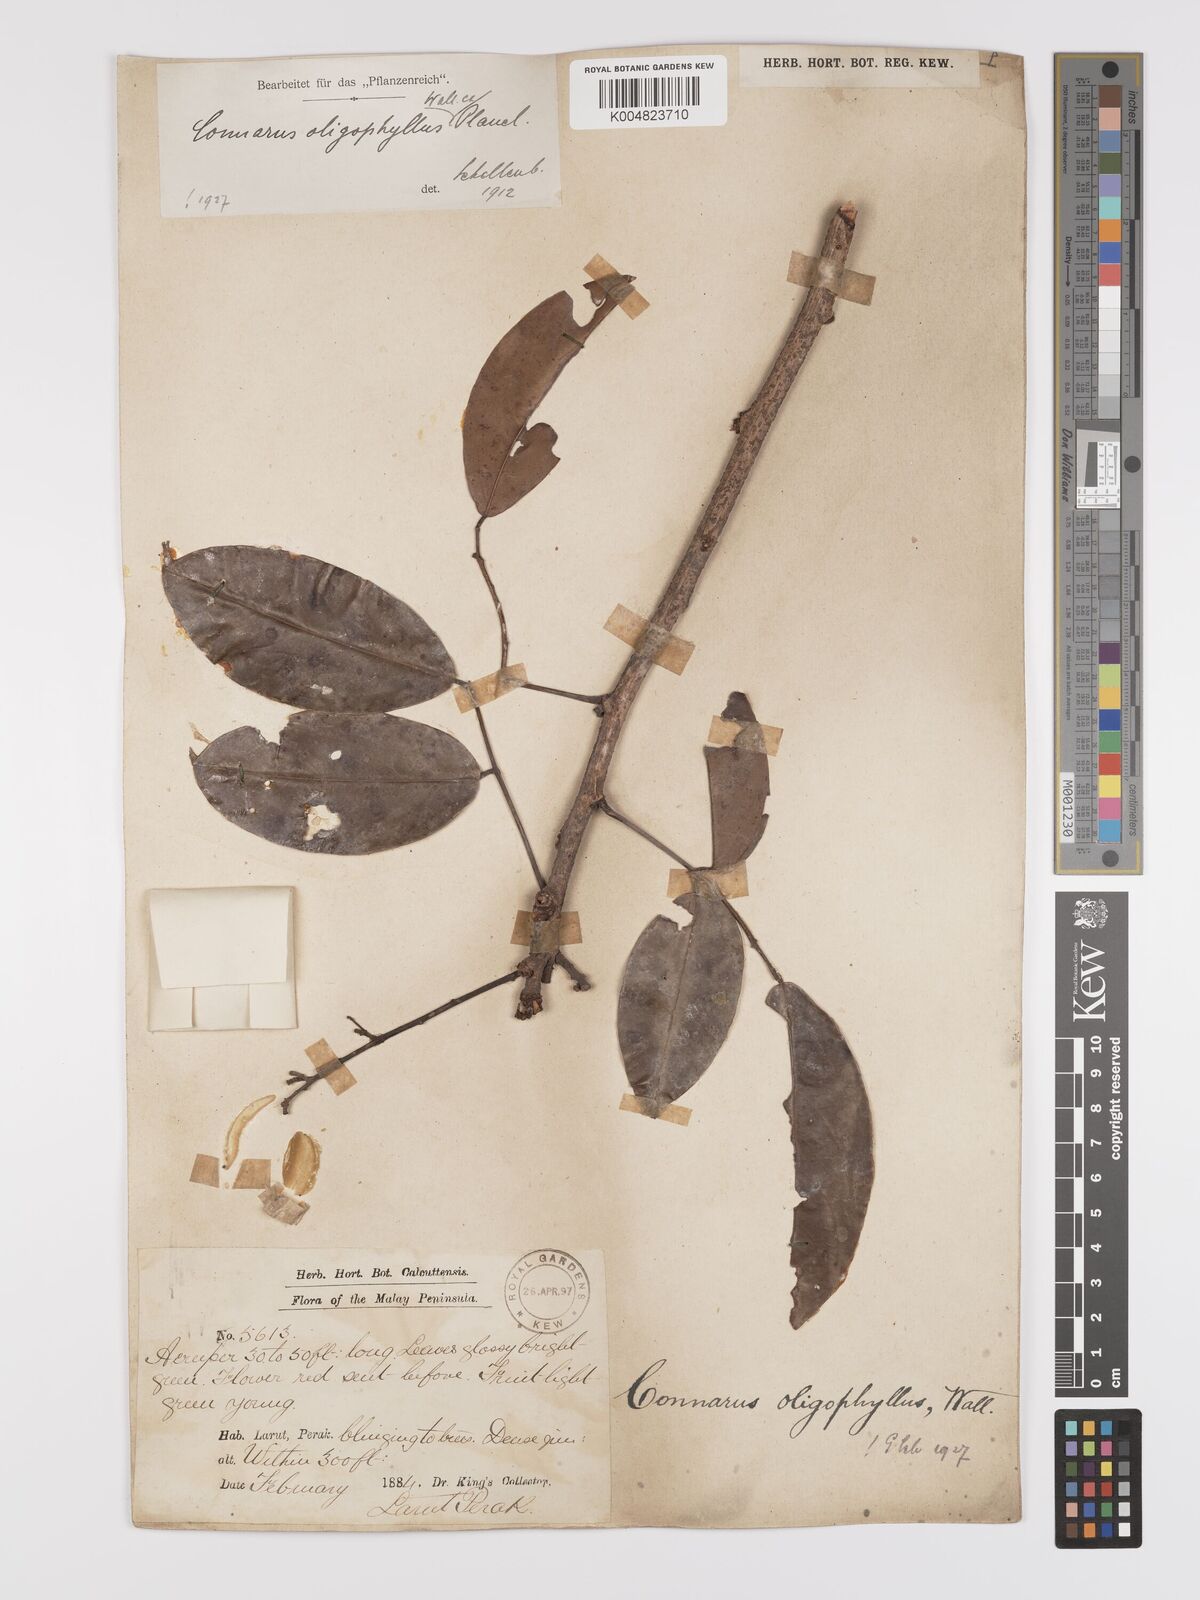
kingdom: Plantae
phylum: Tracheophyta
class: Magnoliopsida
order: Oxalidales
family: Connaraceae
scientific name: Connaraceae
